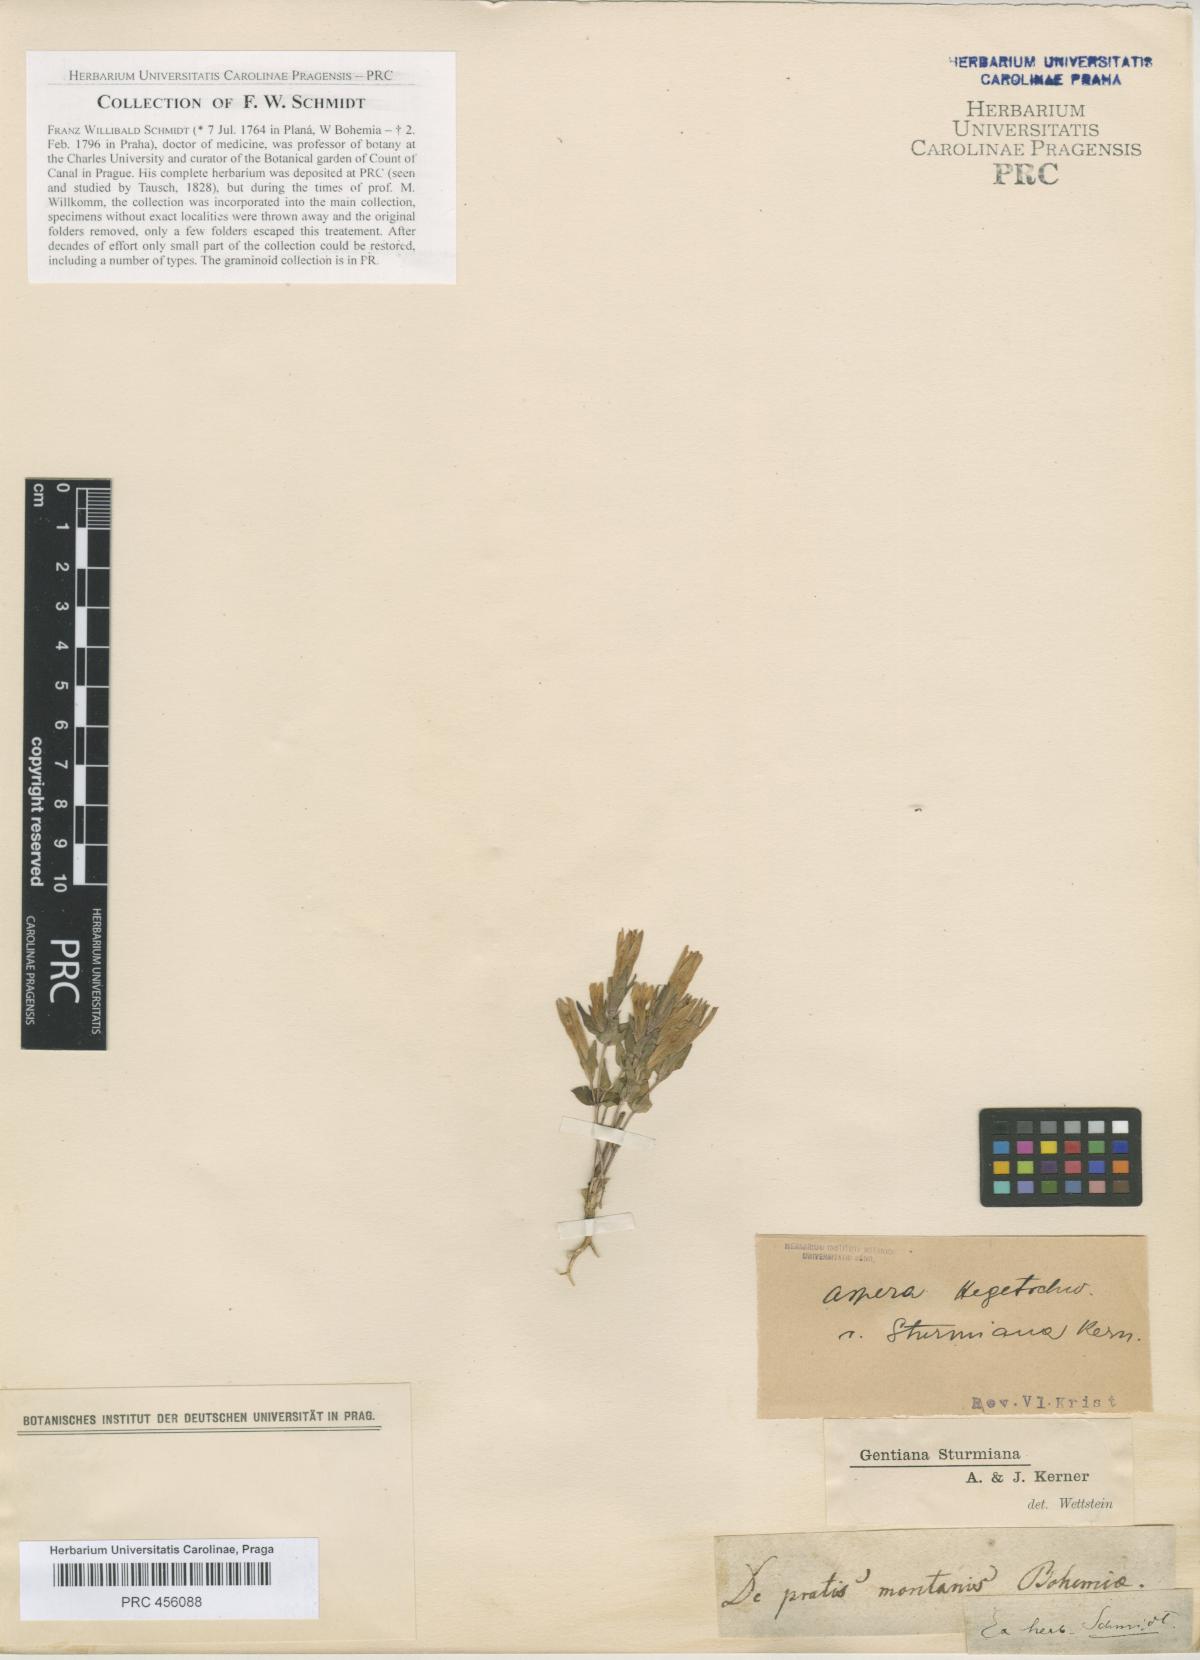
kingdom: Plantae
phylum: Tracheophyta
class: Magnoliopsida
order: Gentianales
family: Gentianaceae
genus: Gentianella
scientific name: Gentianella obtusifolia
